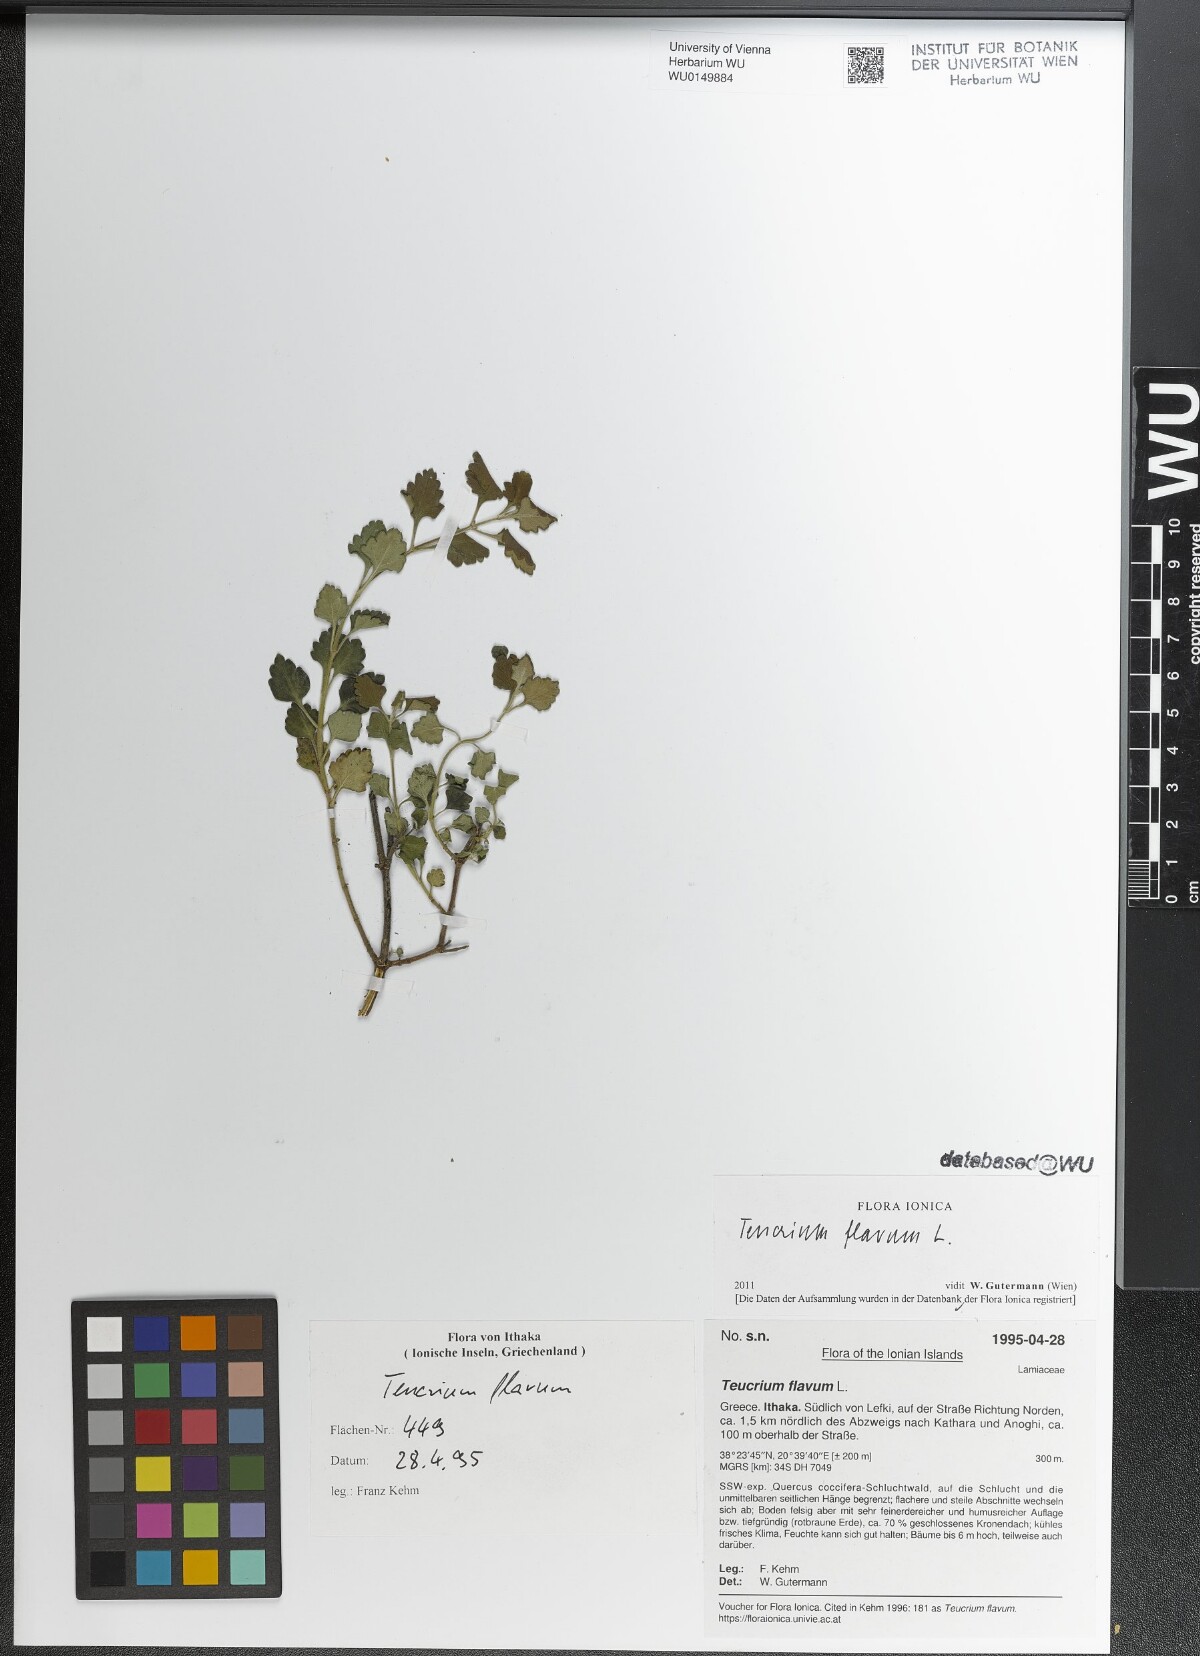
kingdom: Plantae
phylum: Tracheophyta
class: Magnoliopsida
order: Lamiales
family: Lamiaceae
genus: Teucrium
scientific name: Teucrium flavum
